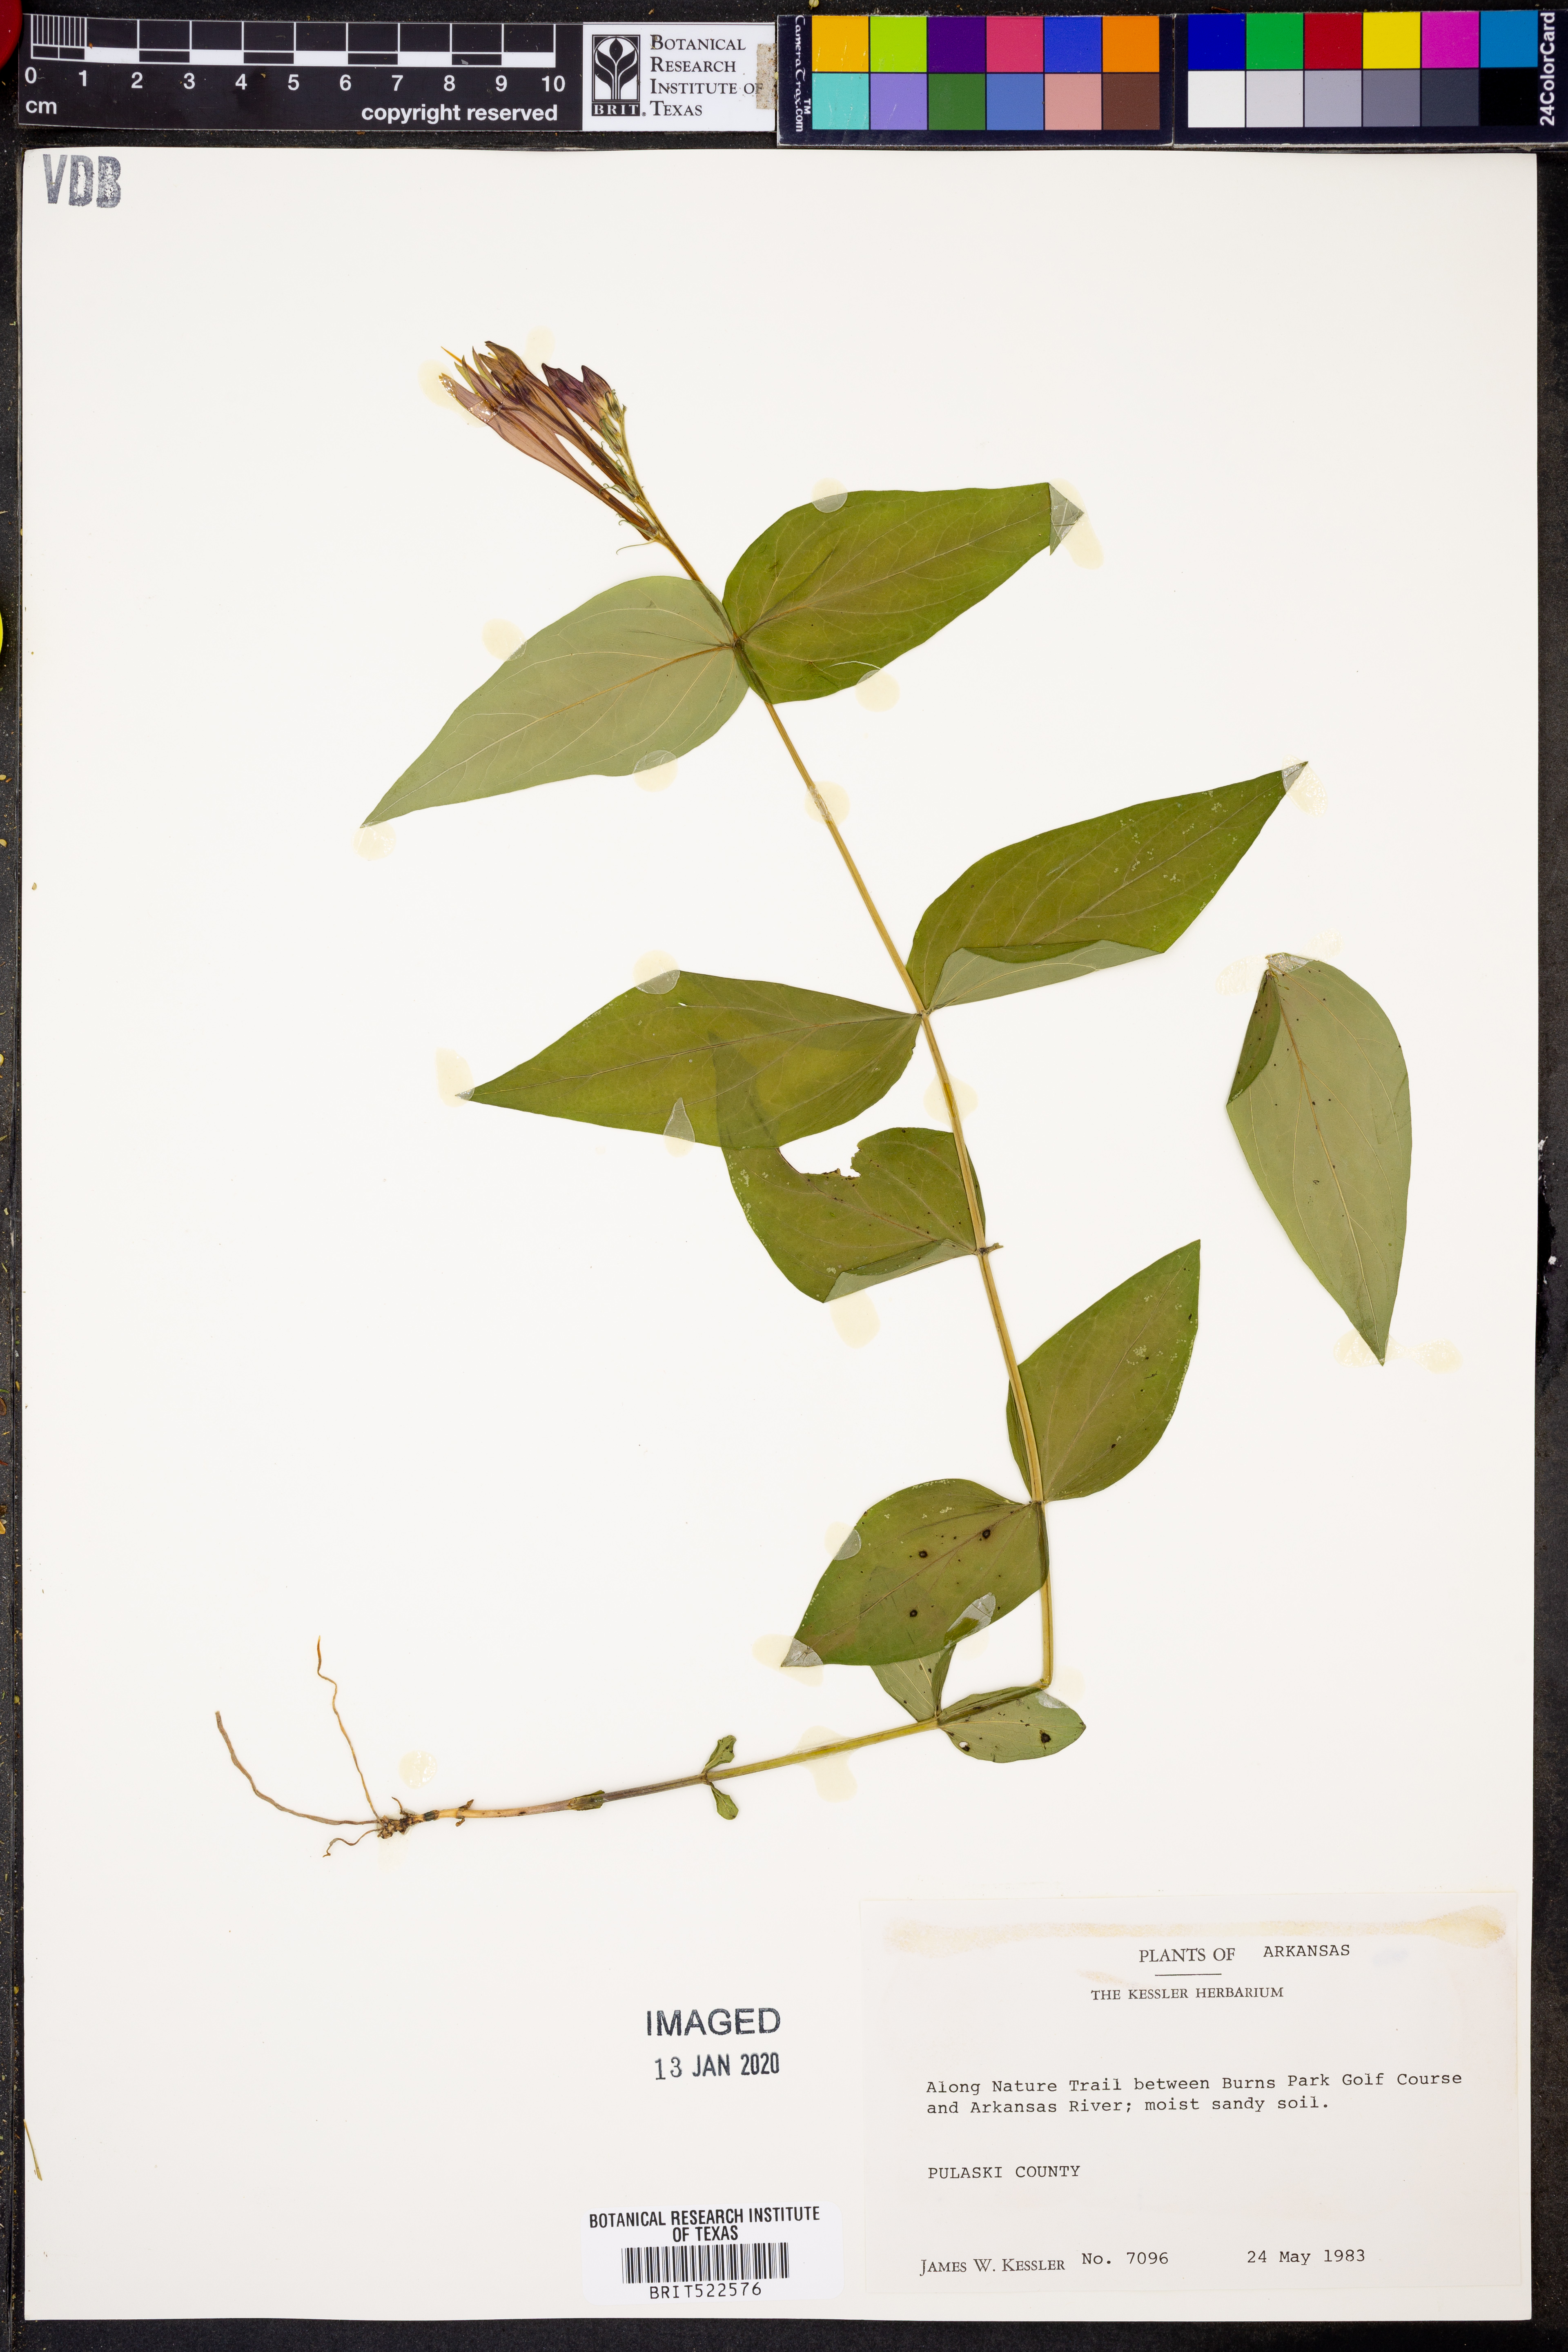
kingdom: Plantae
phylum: Tracheophyta
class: Magnoliopsida
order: Gentianales
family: Loganiaceae
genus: Spigelia
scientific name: Spigelia marilandica
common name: Indian-pink
